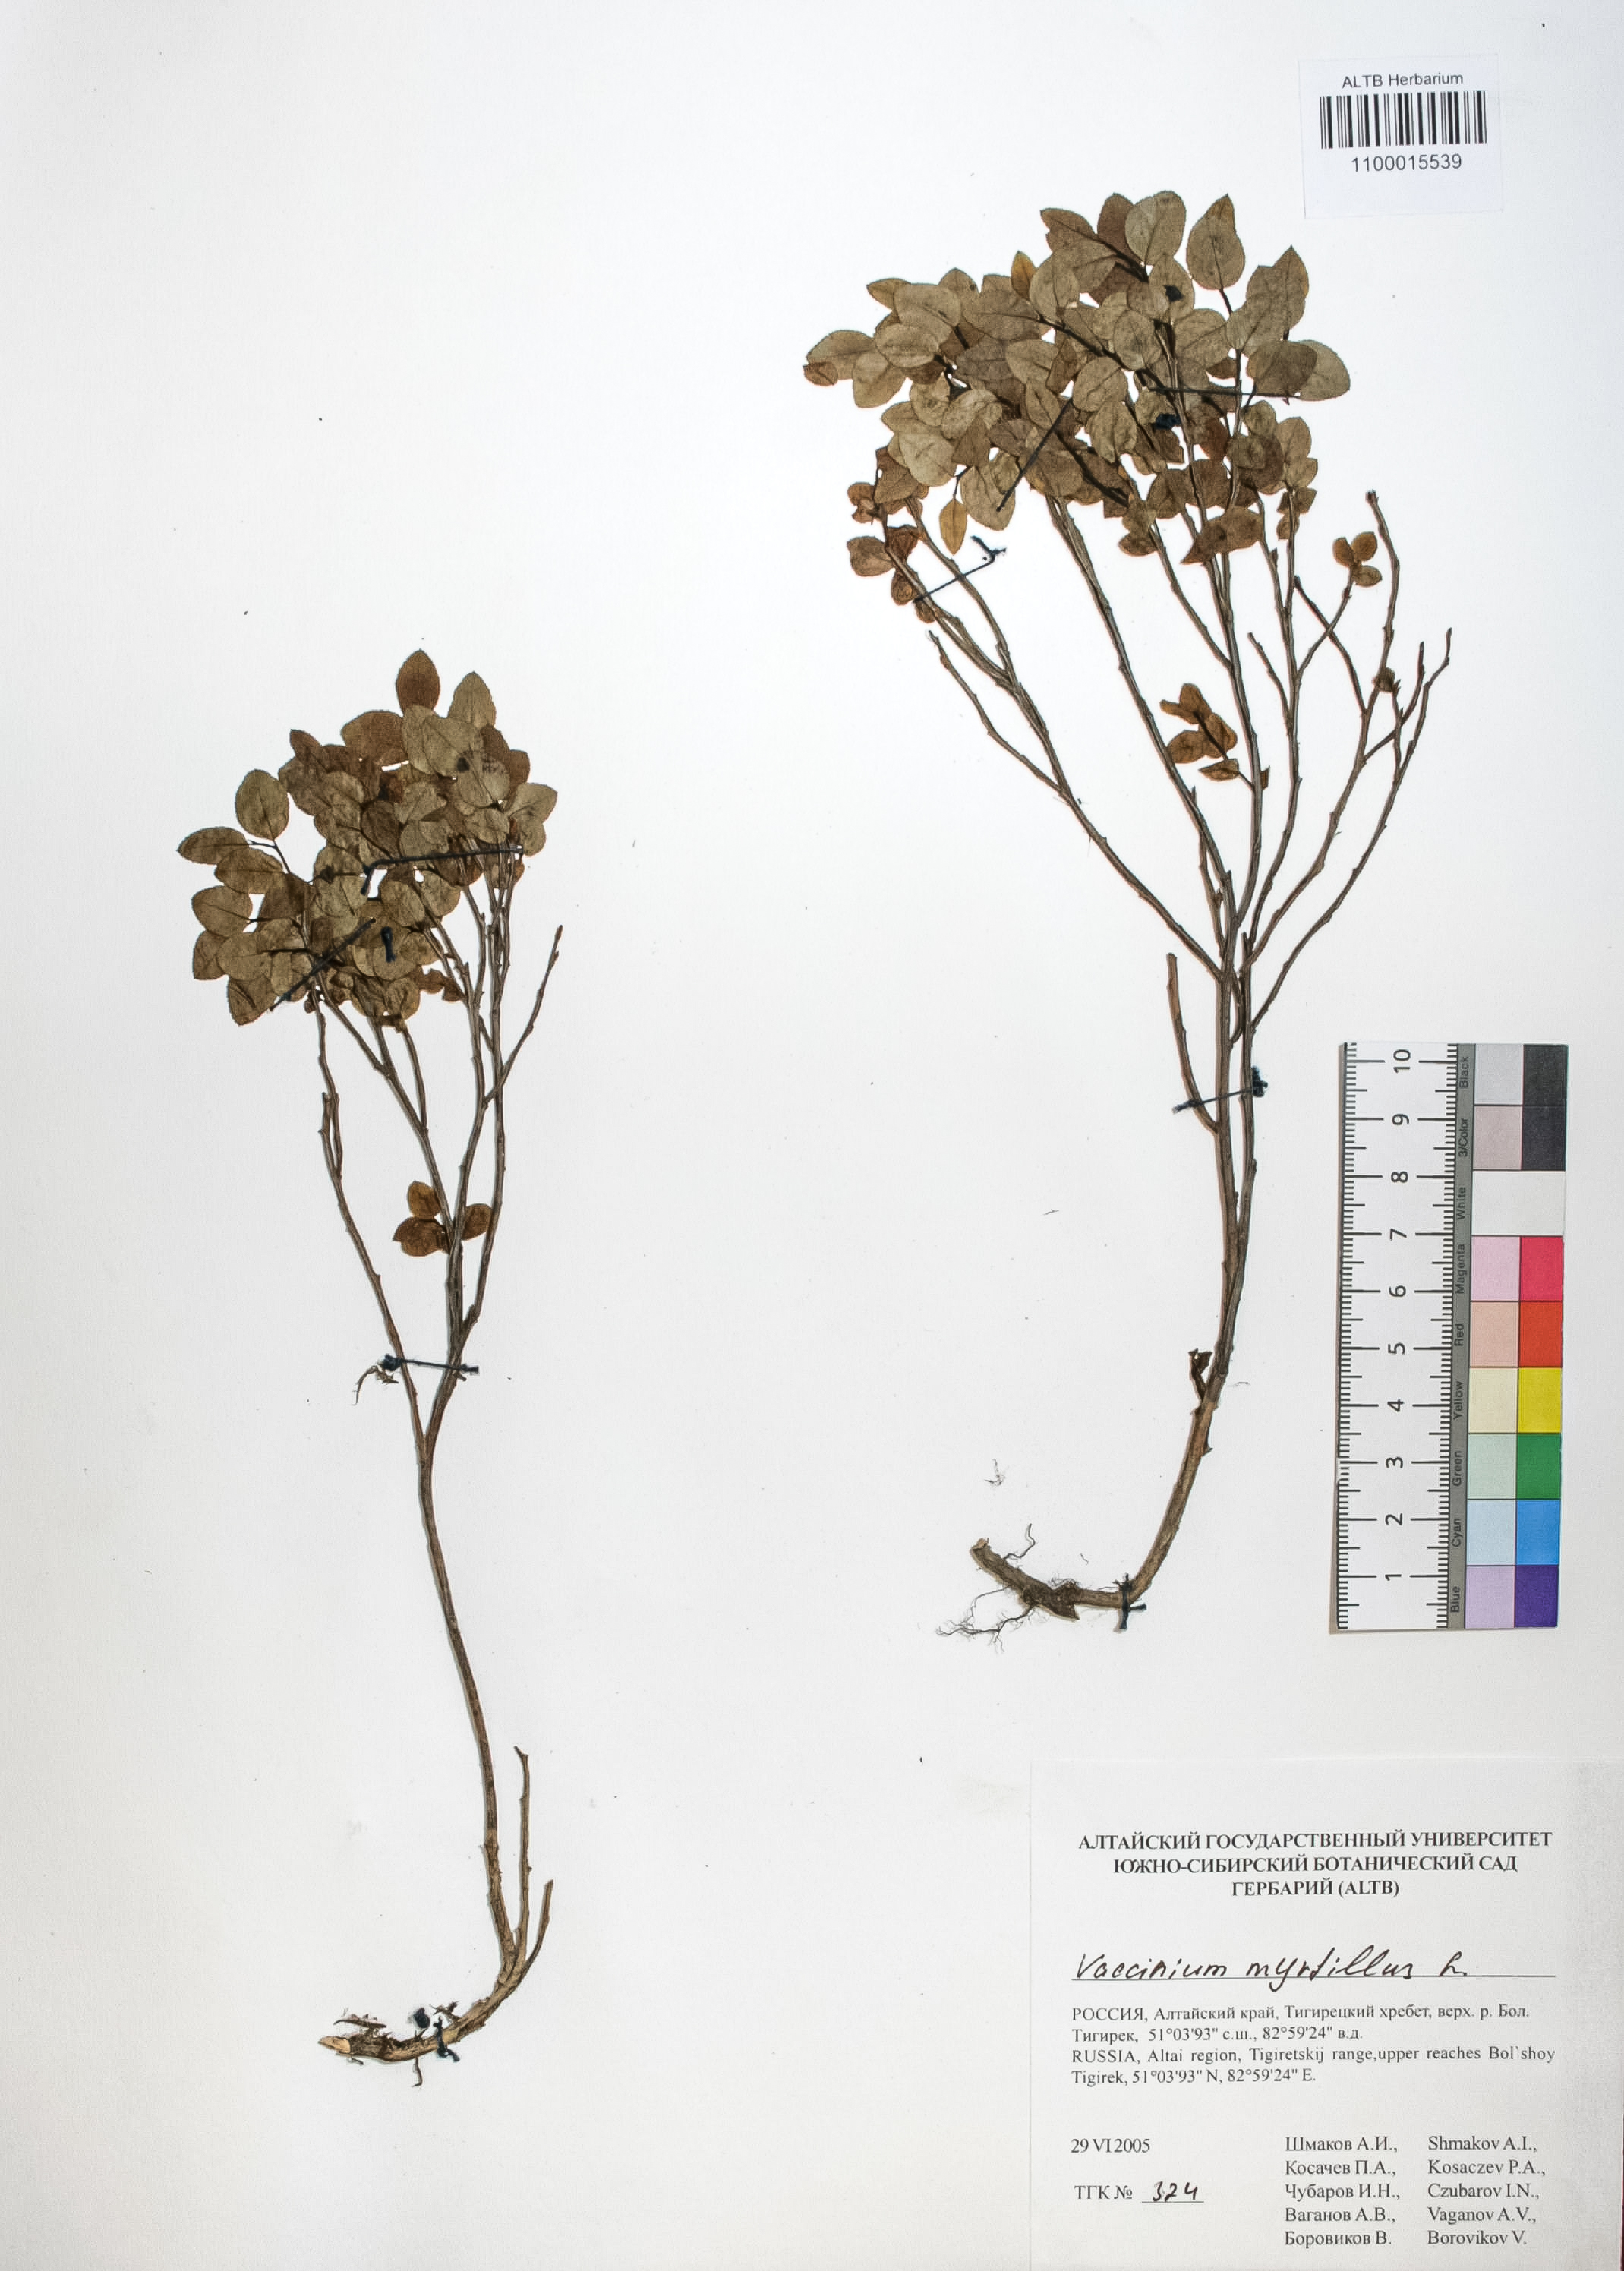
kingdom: Plantae
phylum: Tracheophyta
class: Magnoliopsida
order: Ericales
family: Ericaceae
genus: Vaccinium
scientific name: Vaccinium myrtillus
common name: Bilberry
